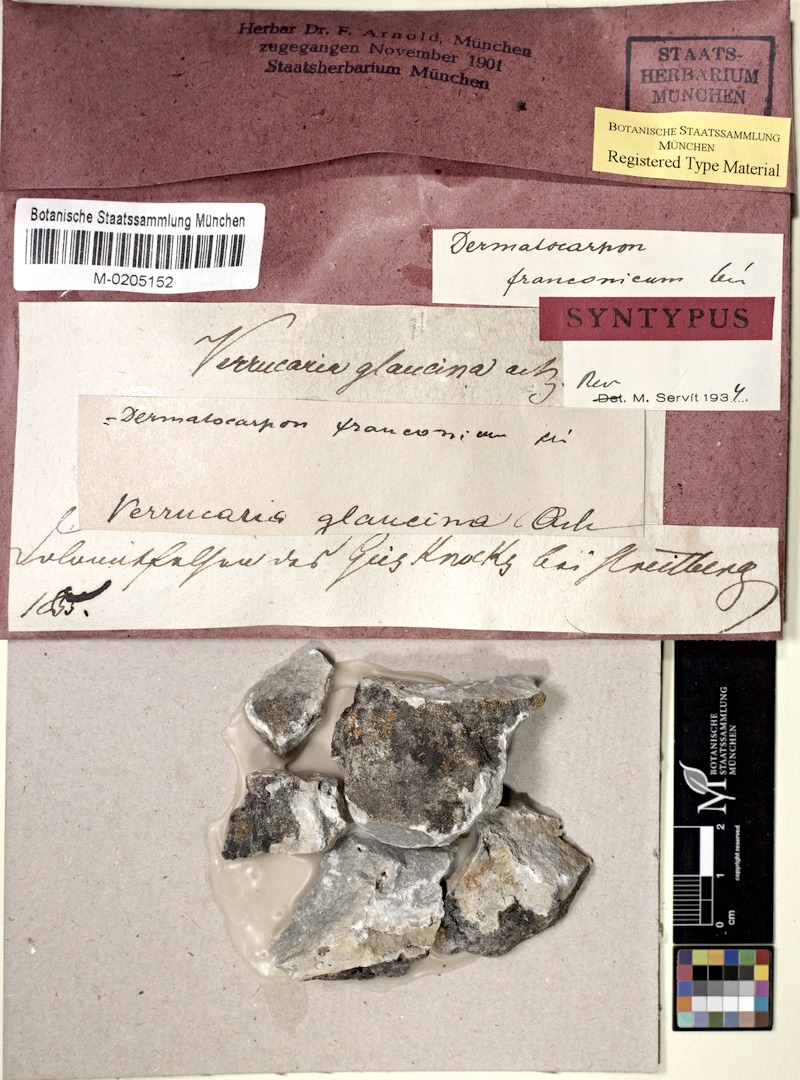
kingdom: Fungi
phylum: Ascomycota
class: Eurotiomycetes
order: Verrucariales
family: Verrucariaceae
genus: Dermatocarpon
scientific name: Dermatocarpon
